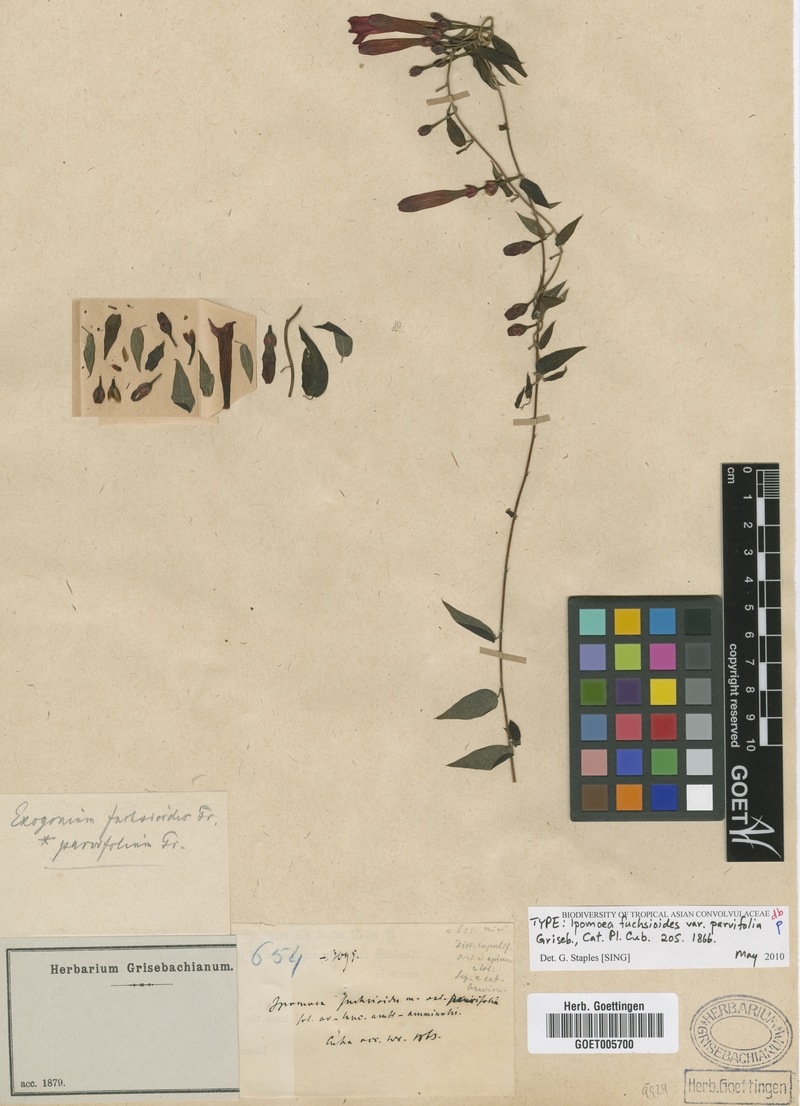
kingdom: Plantae
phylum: Tracheophyta
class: Magnoliopsida
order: Solanales
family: Convolvulaceae
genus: Ipomoea
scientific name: Ipomoea fuchsioides
